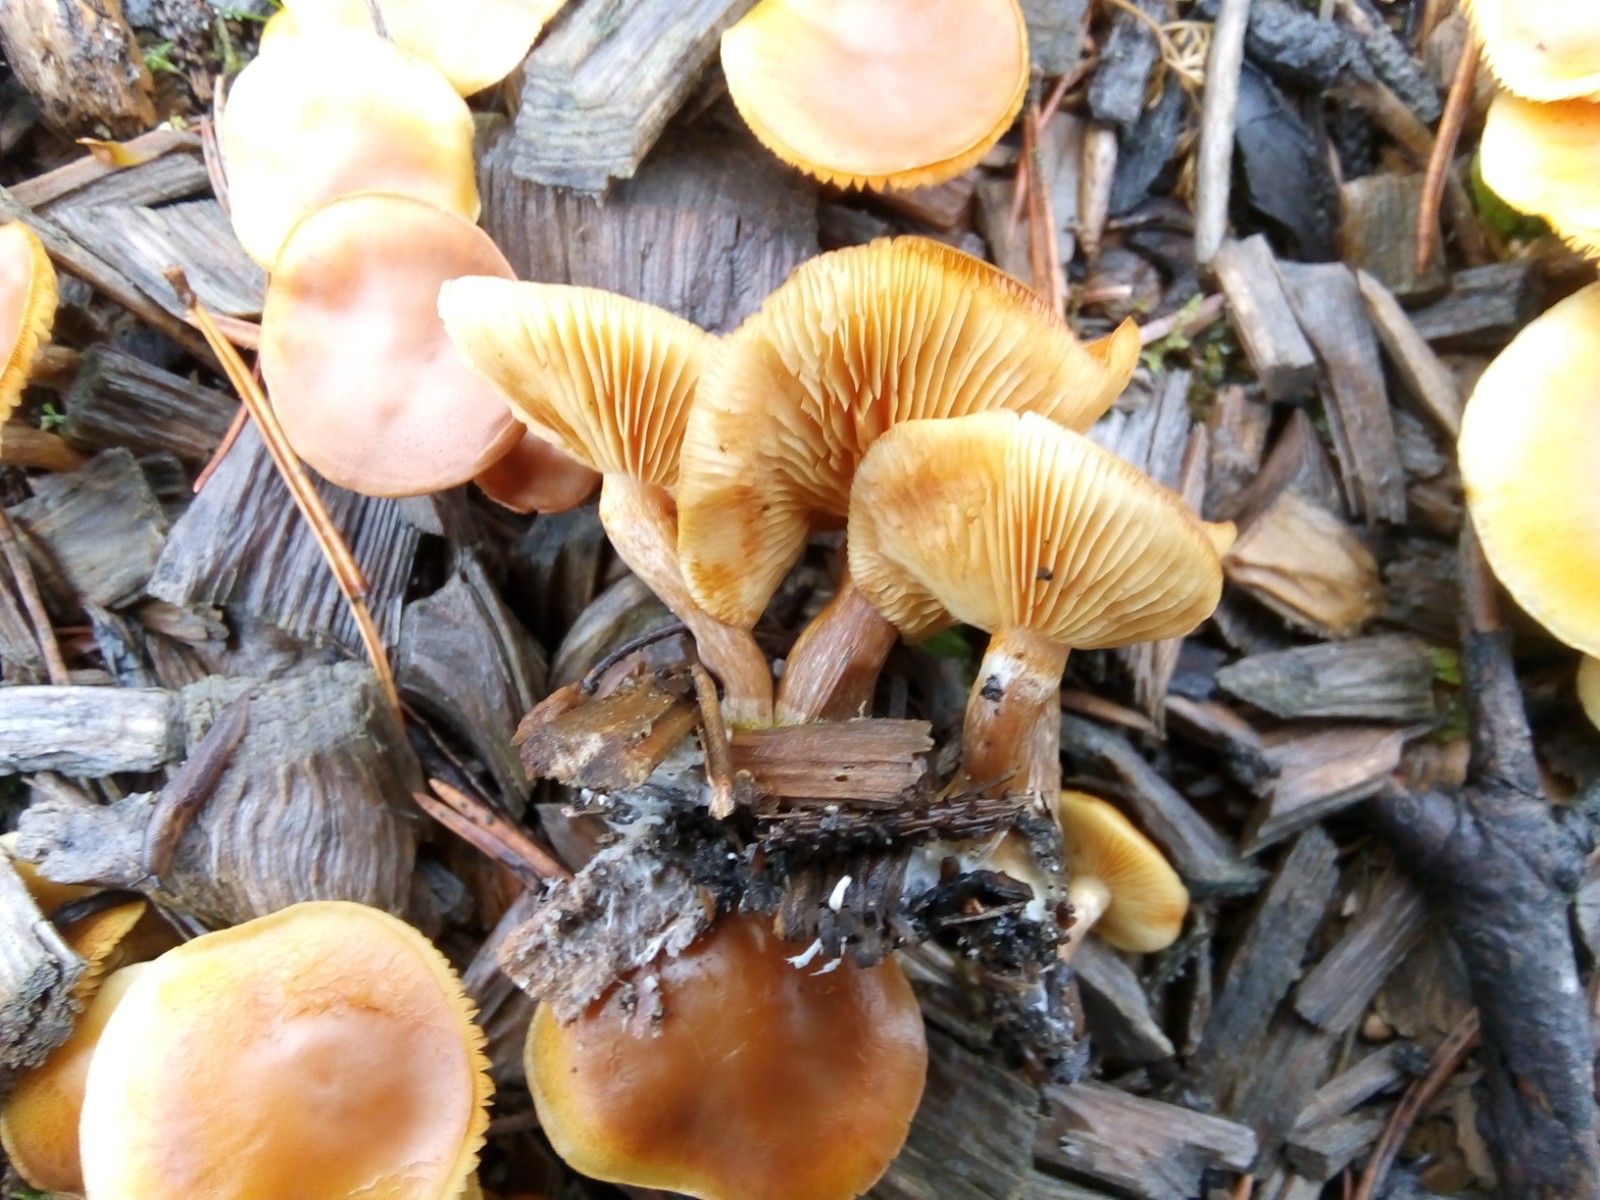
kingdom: Fungi
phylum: Basidiomycota
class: Agaricomycetes
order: Agaricales
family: Hymenogastraceae
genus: Gymnopilus
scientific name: Gymnopilus penetrans
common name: plettet flammehat
